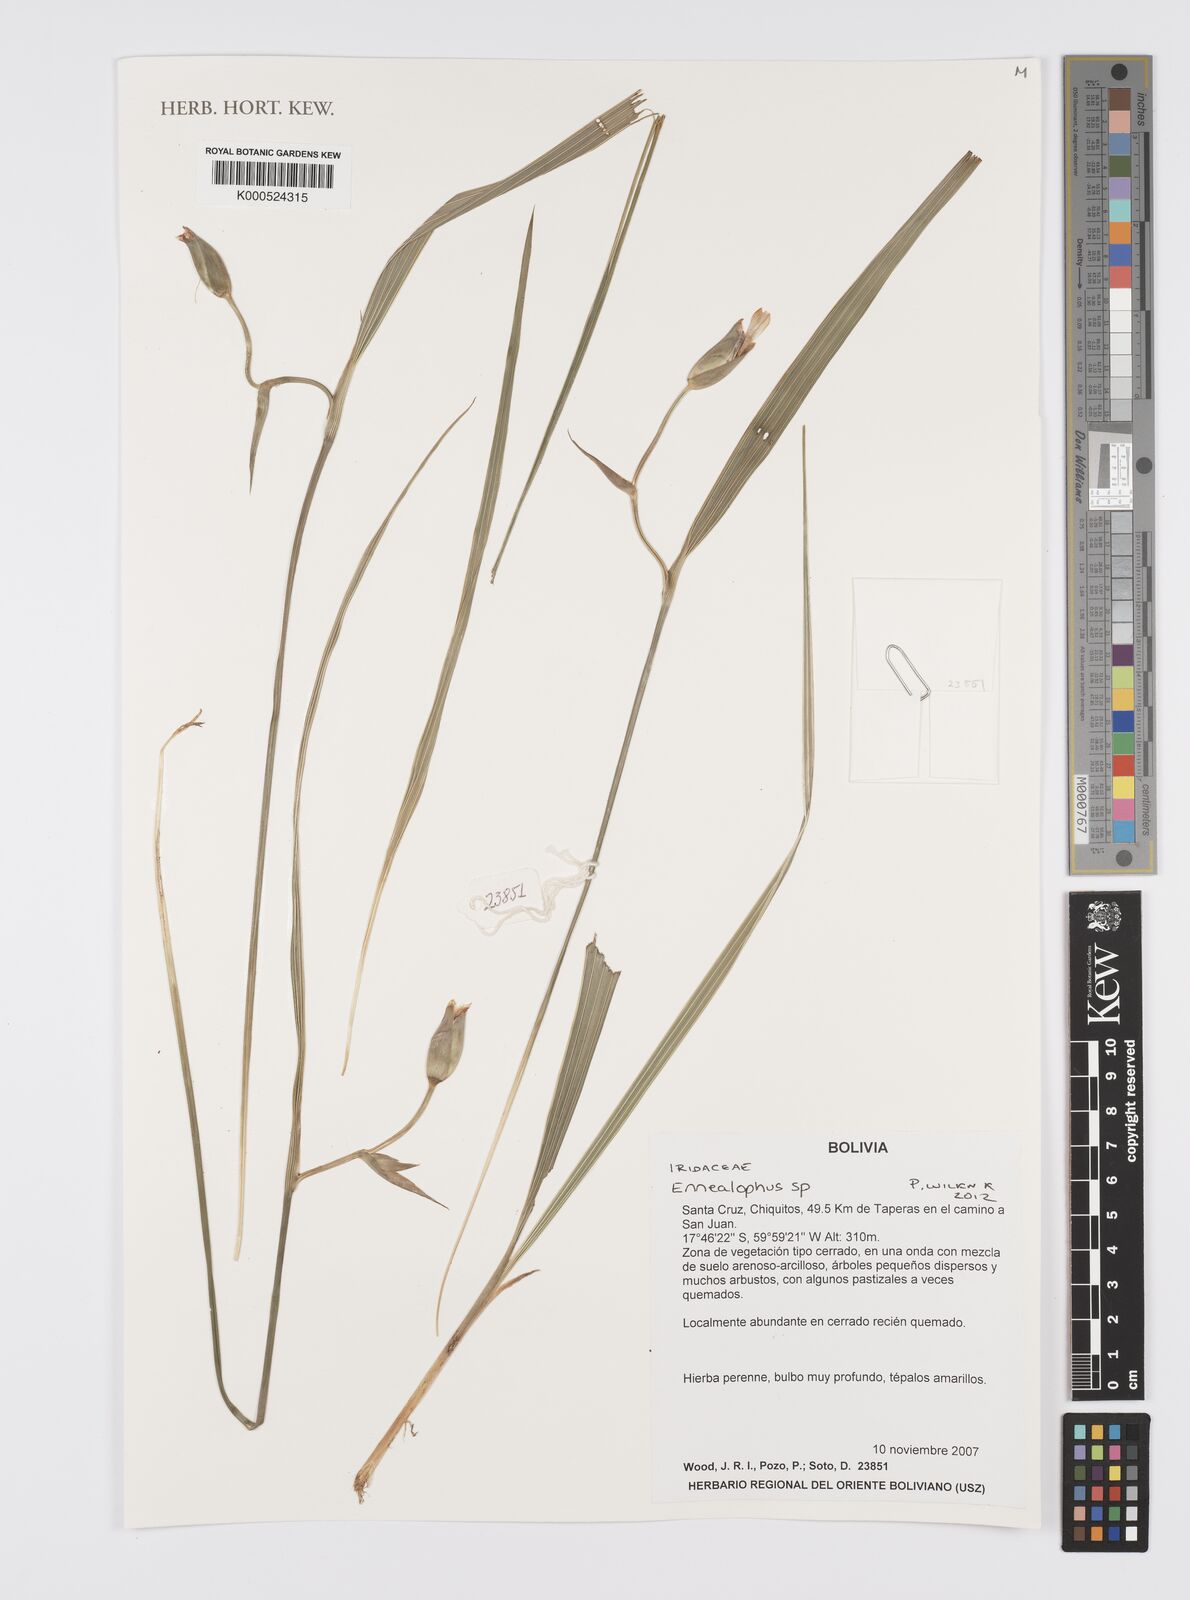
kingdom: Plantae
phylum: Tracheophyta
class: Liliopsida
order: Asparagales
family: Iridaceae
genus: Ennealophus
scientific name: Ennealophus
